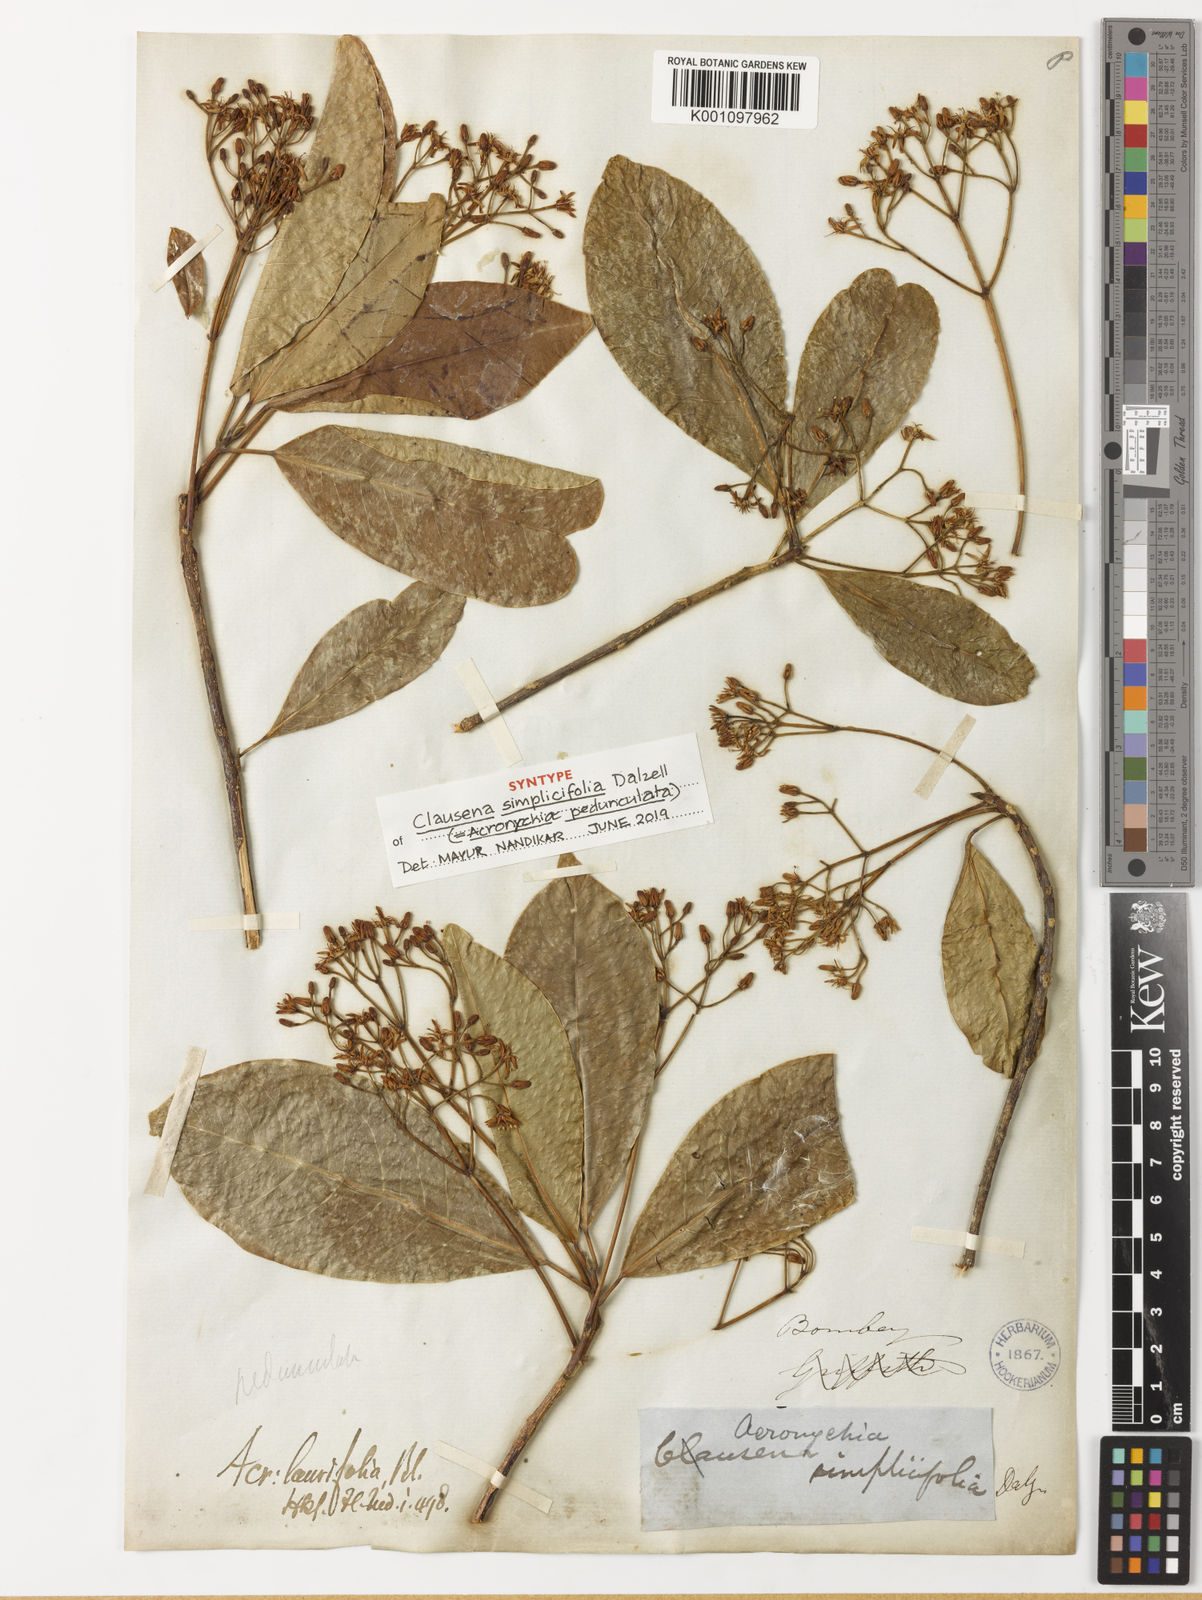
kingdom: Plantae
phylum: Tracheophyta
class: Magnoliopsida
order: Sapindales
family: Rutaceae
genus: Acronychia
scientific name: Acronychia pedunculata
